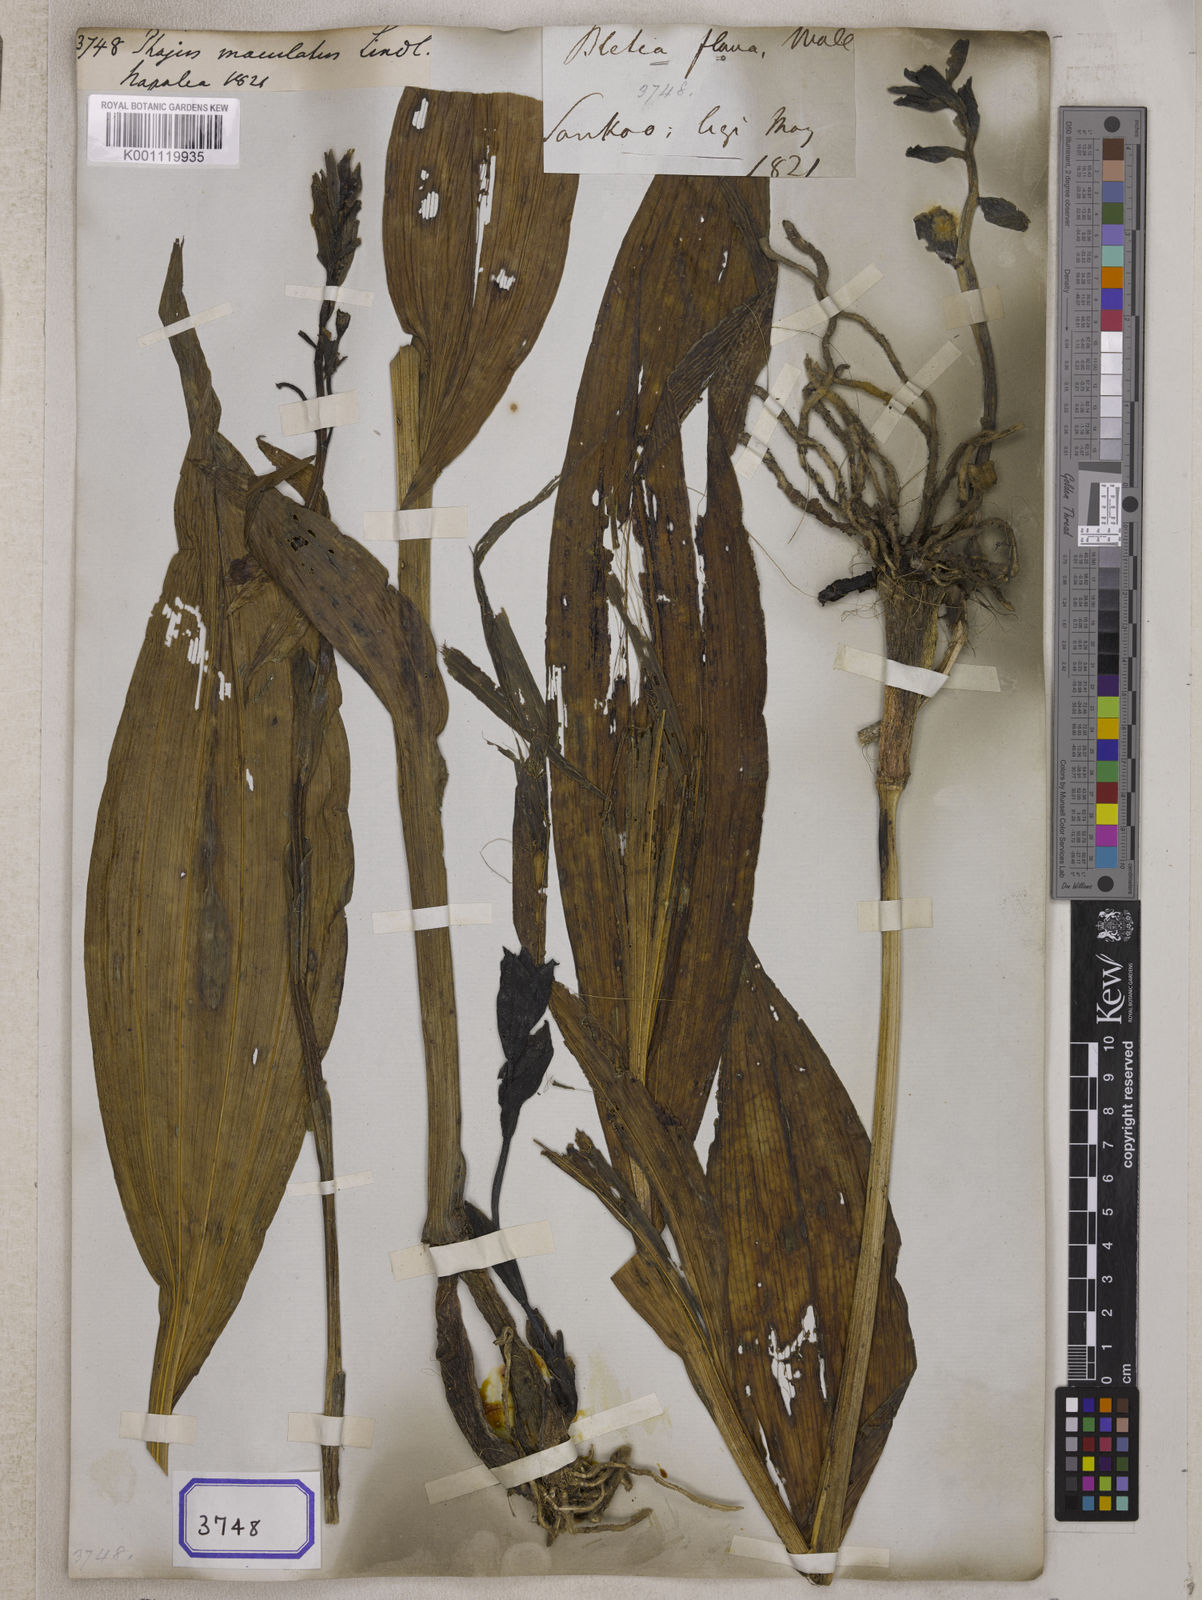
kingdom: Plantae
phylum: Tracheophyta
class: Liliopsida
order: Asparagales
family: Orchidaceae
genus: Calanthe
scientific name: Calanthe woodfordii
